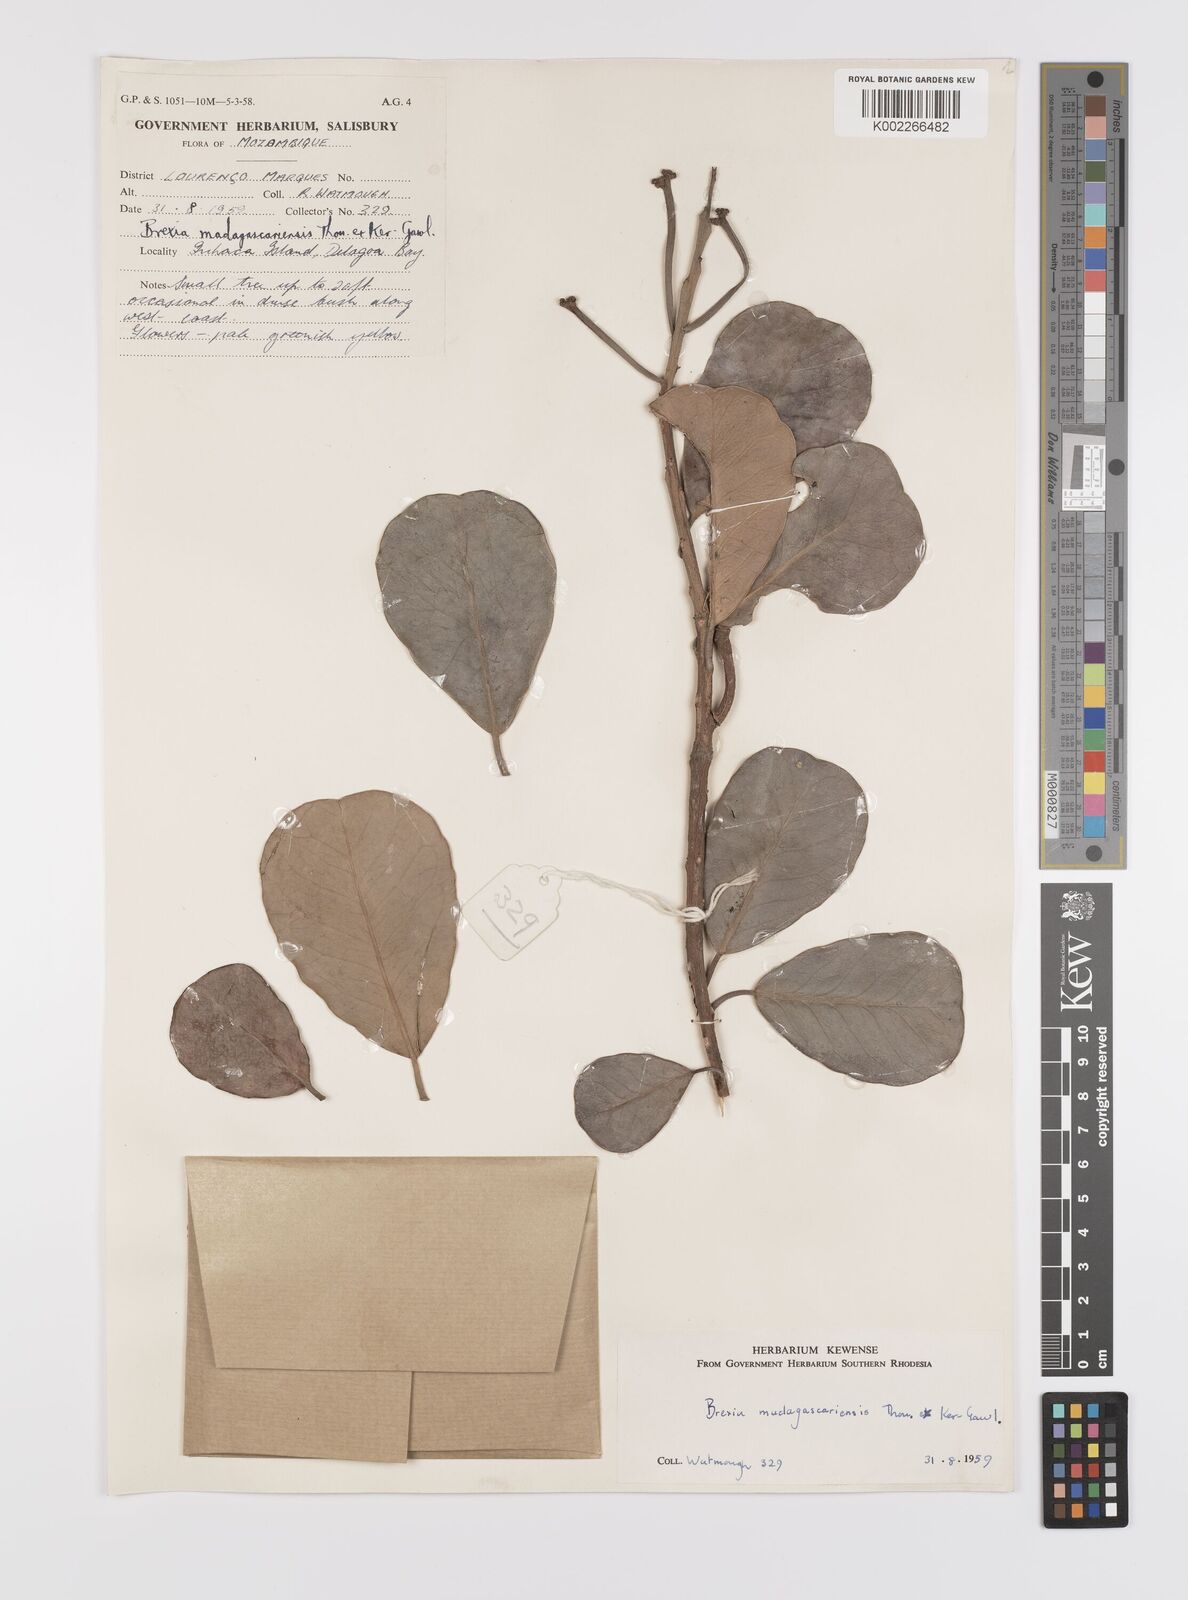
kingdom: Plantae
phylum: Tracheophyta
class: Magnoliopsida
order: Celastrales
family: Celastraceae
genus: Brexia
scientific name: Brexia madagascariensis
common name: Brexia
